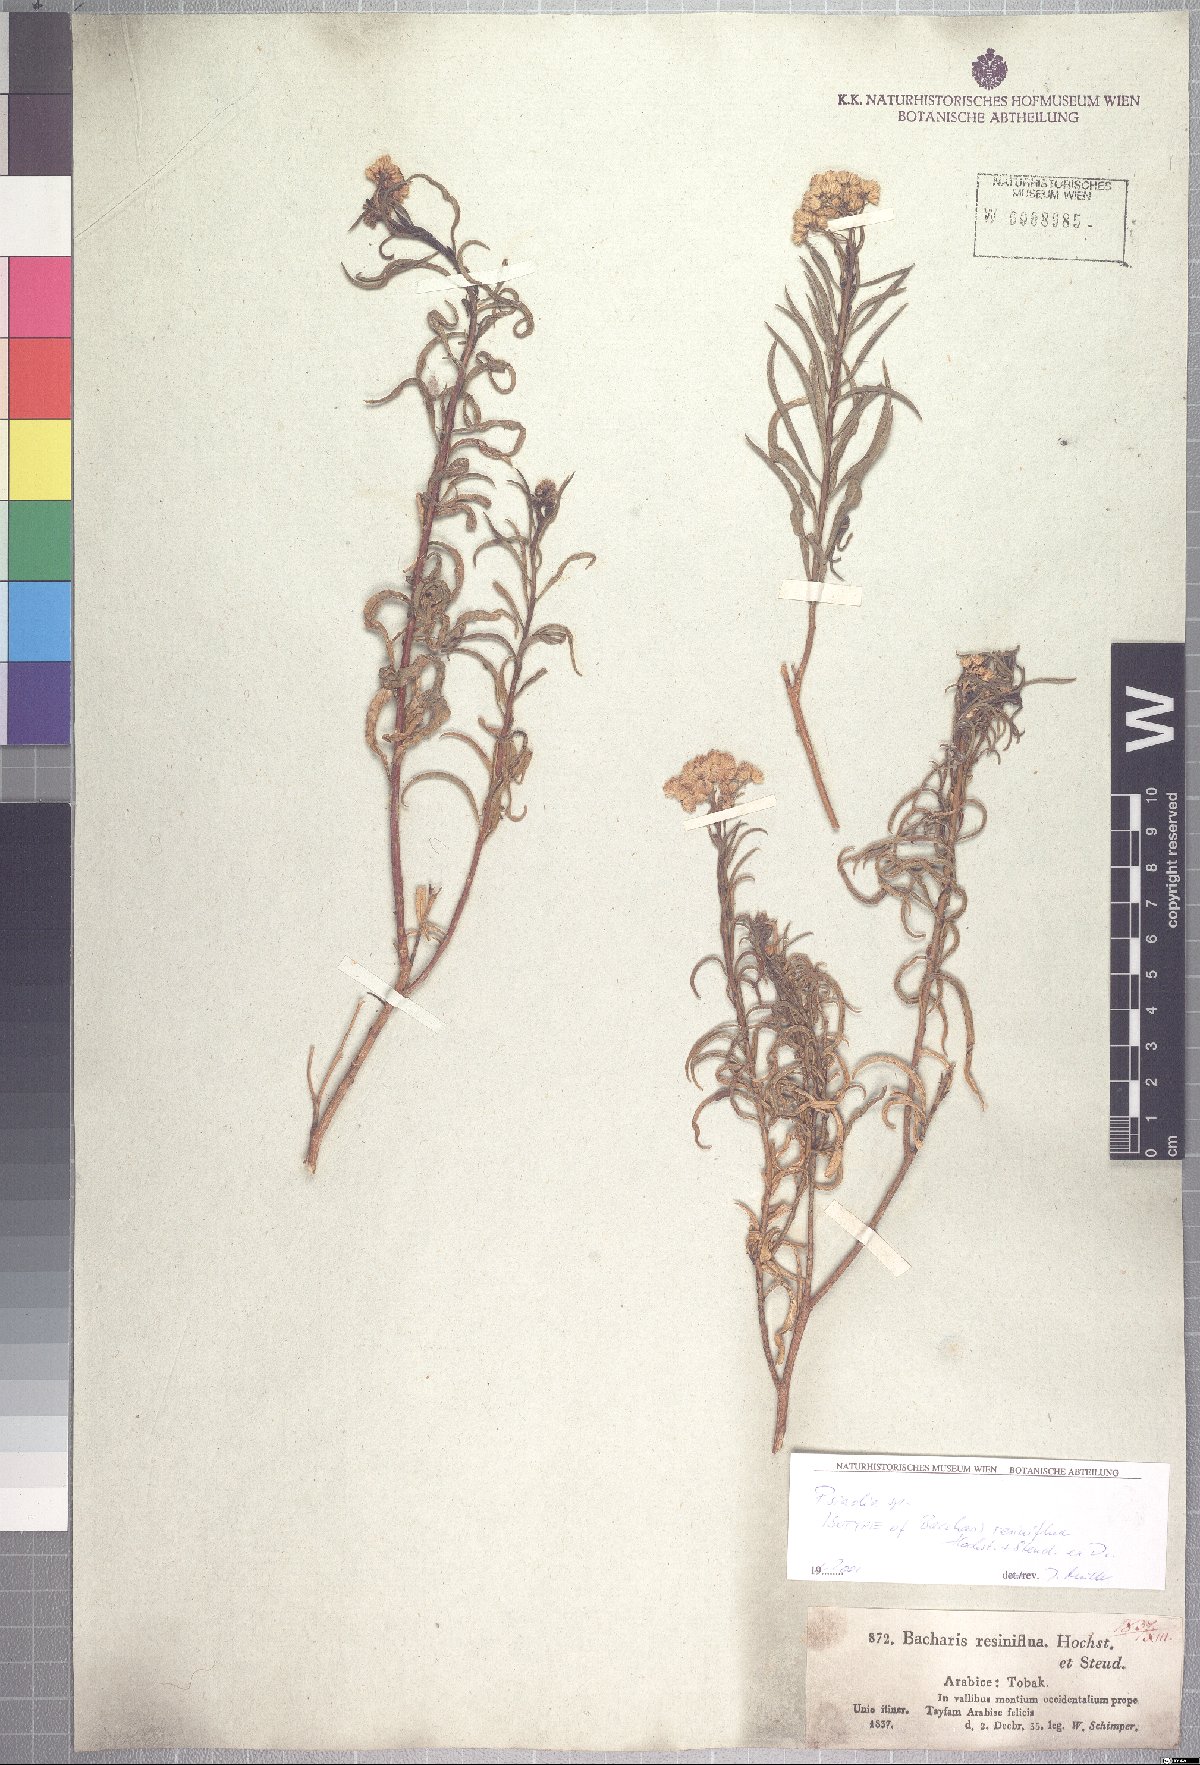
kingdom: Plantae
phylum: Tracheophyta
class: Magnoliopsida
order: Asterales
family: Asteraceae
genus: Psiadia
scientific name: Psiadia punctulata
